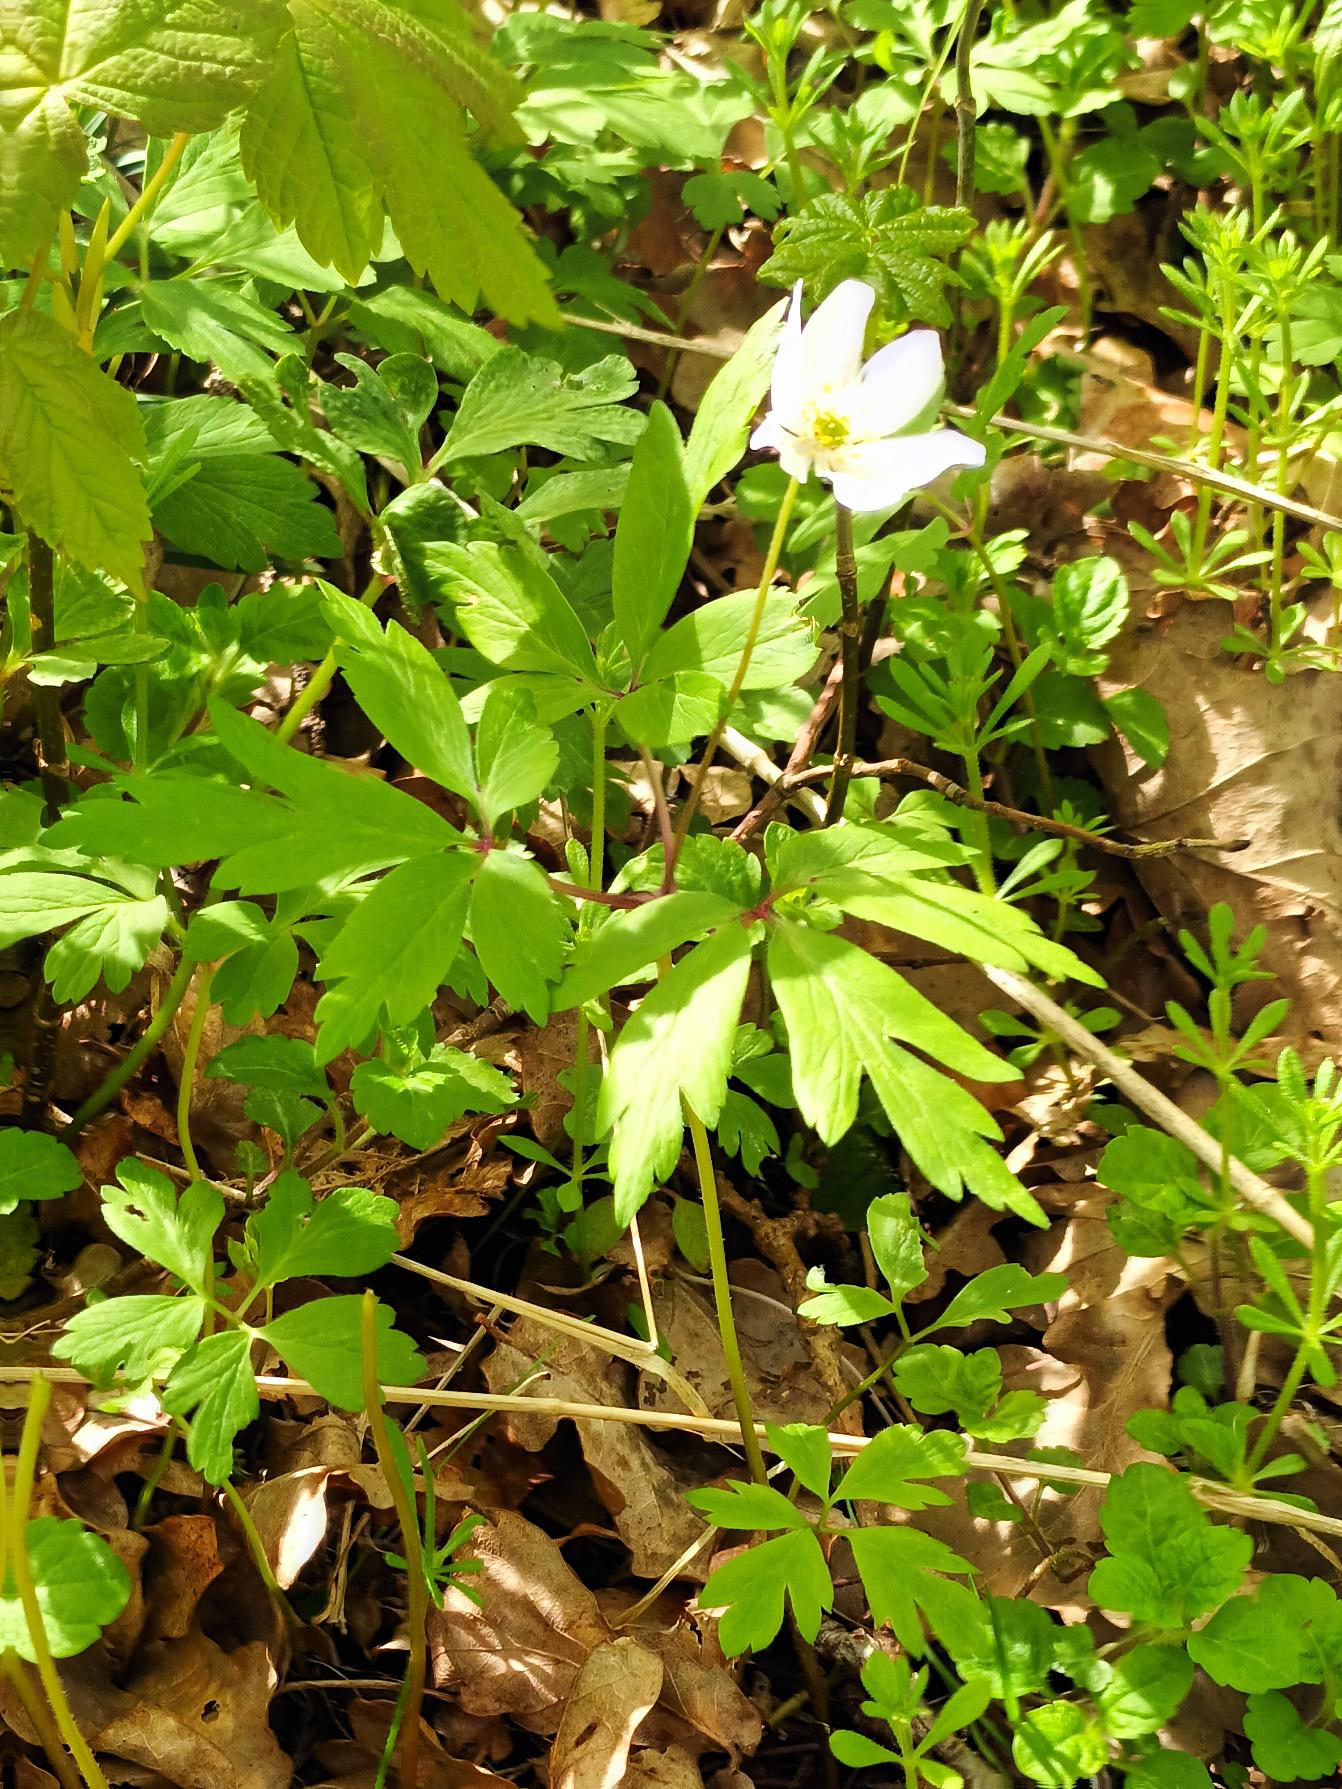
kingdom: Plantae
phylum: Tracheophyta
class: Magnoliopsida
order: Ranunculales
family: Ranunculaceae
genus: Anemone
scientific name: Anemone nemorosa
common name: Hvid anemone
